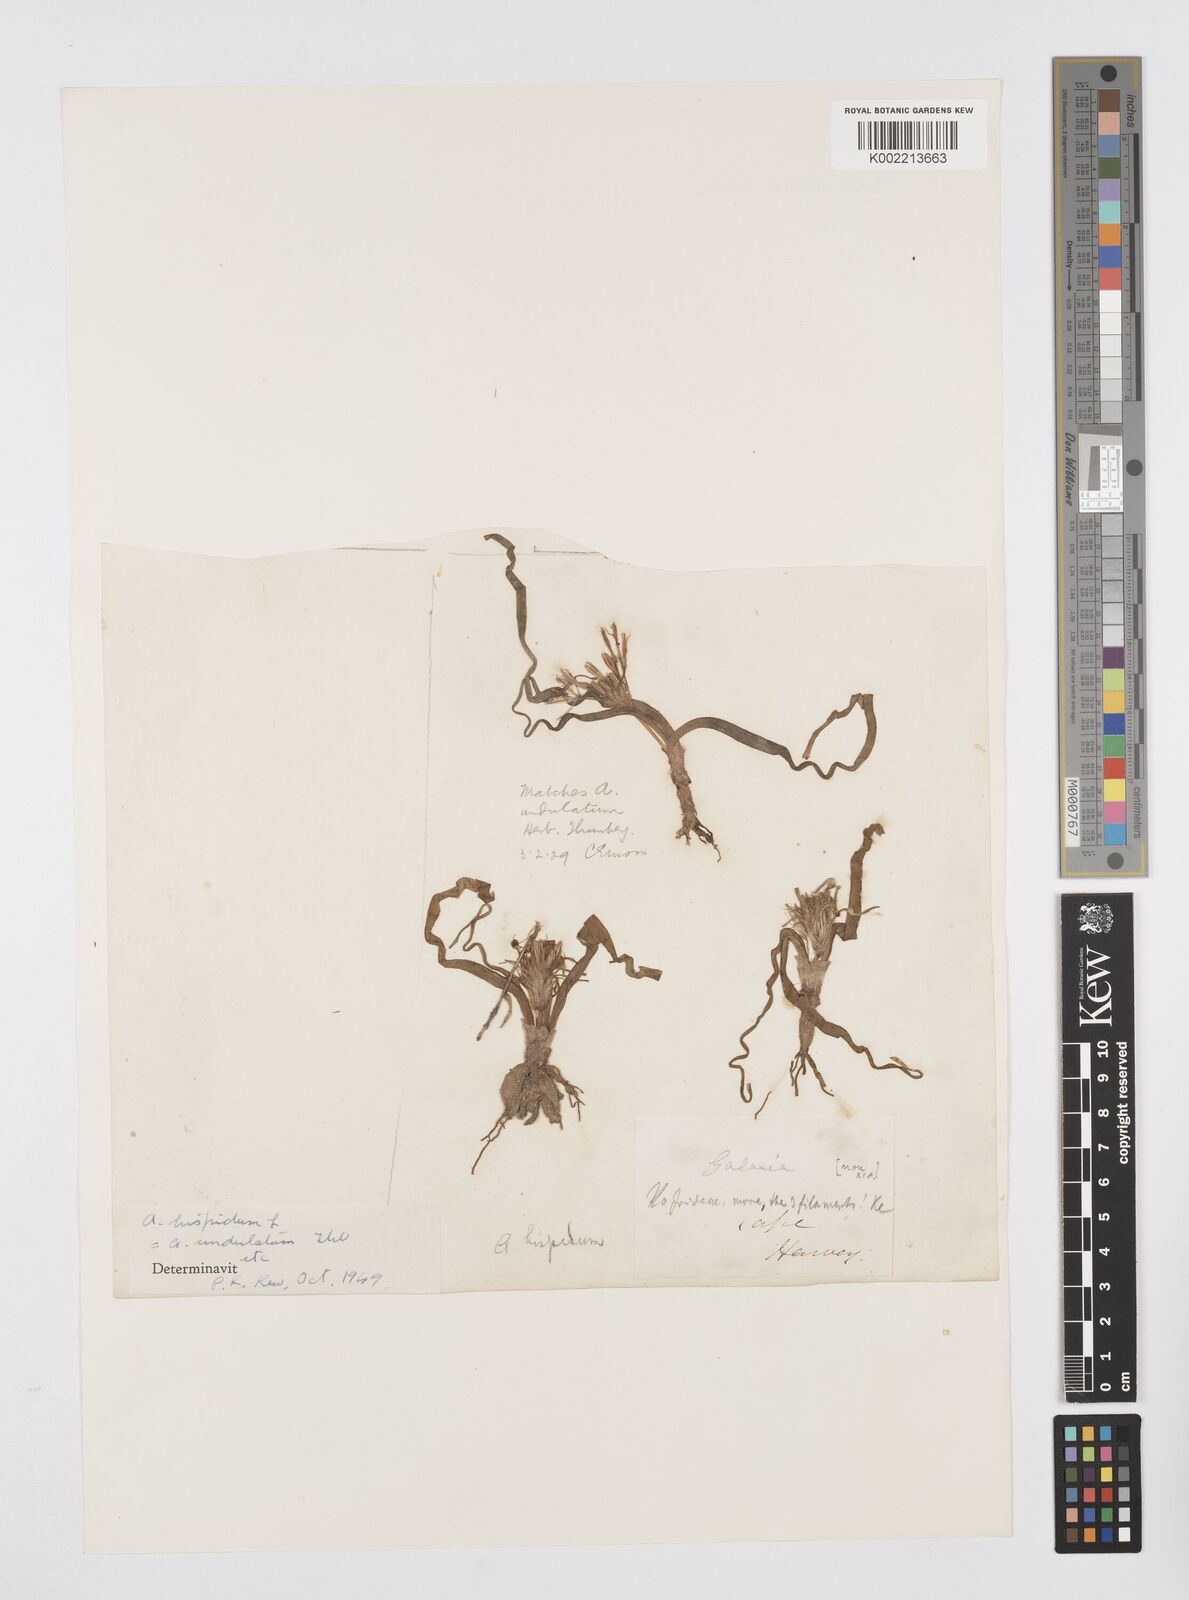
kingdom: Plantae
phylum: Tracheophyta
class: Liliopsida
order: Asparagales
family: Asphodelaceae
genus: Trachyandra
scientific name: Trachyandra hispida
